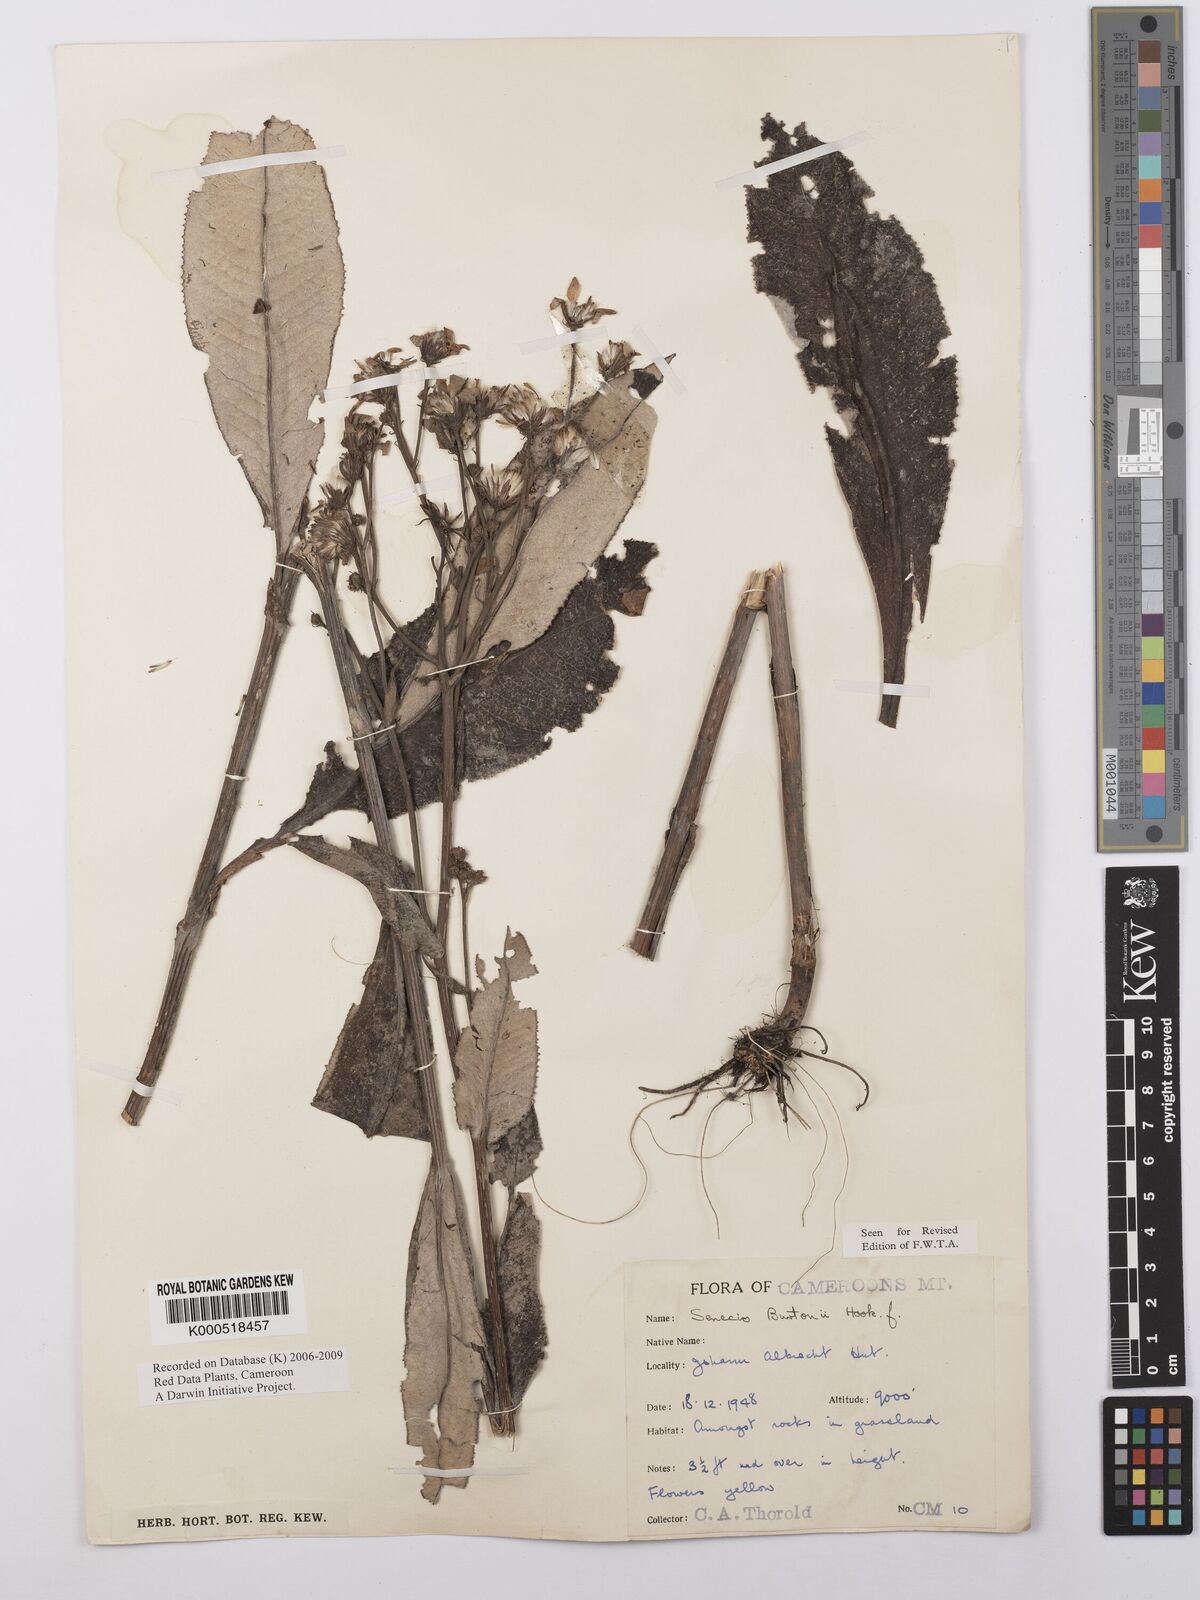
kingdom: Plantae
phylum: Tracheophyta
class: Magnoliopsida
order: Asterales
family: Asteraceae
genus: Senecio
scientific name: Senecio burtonii
